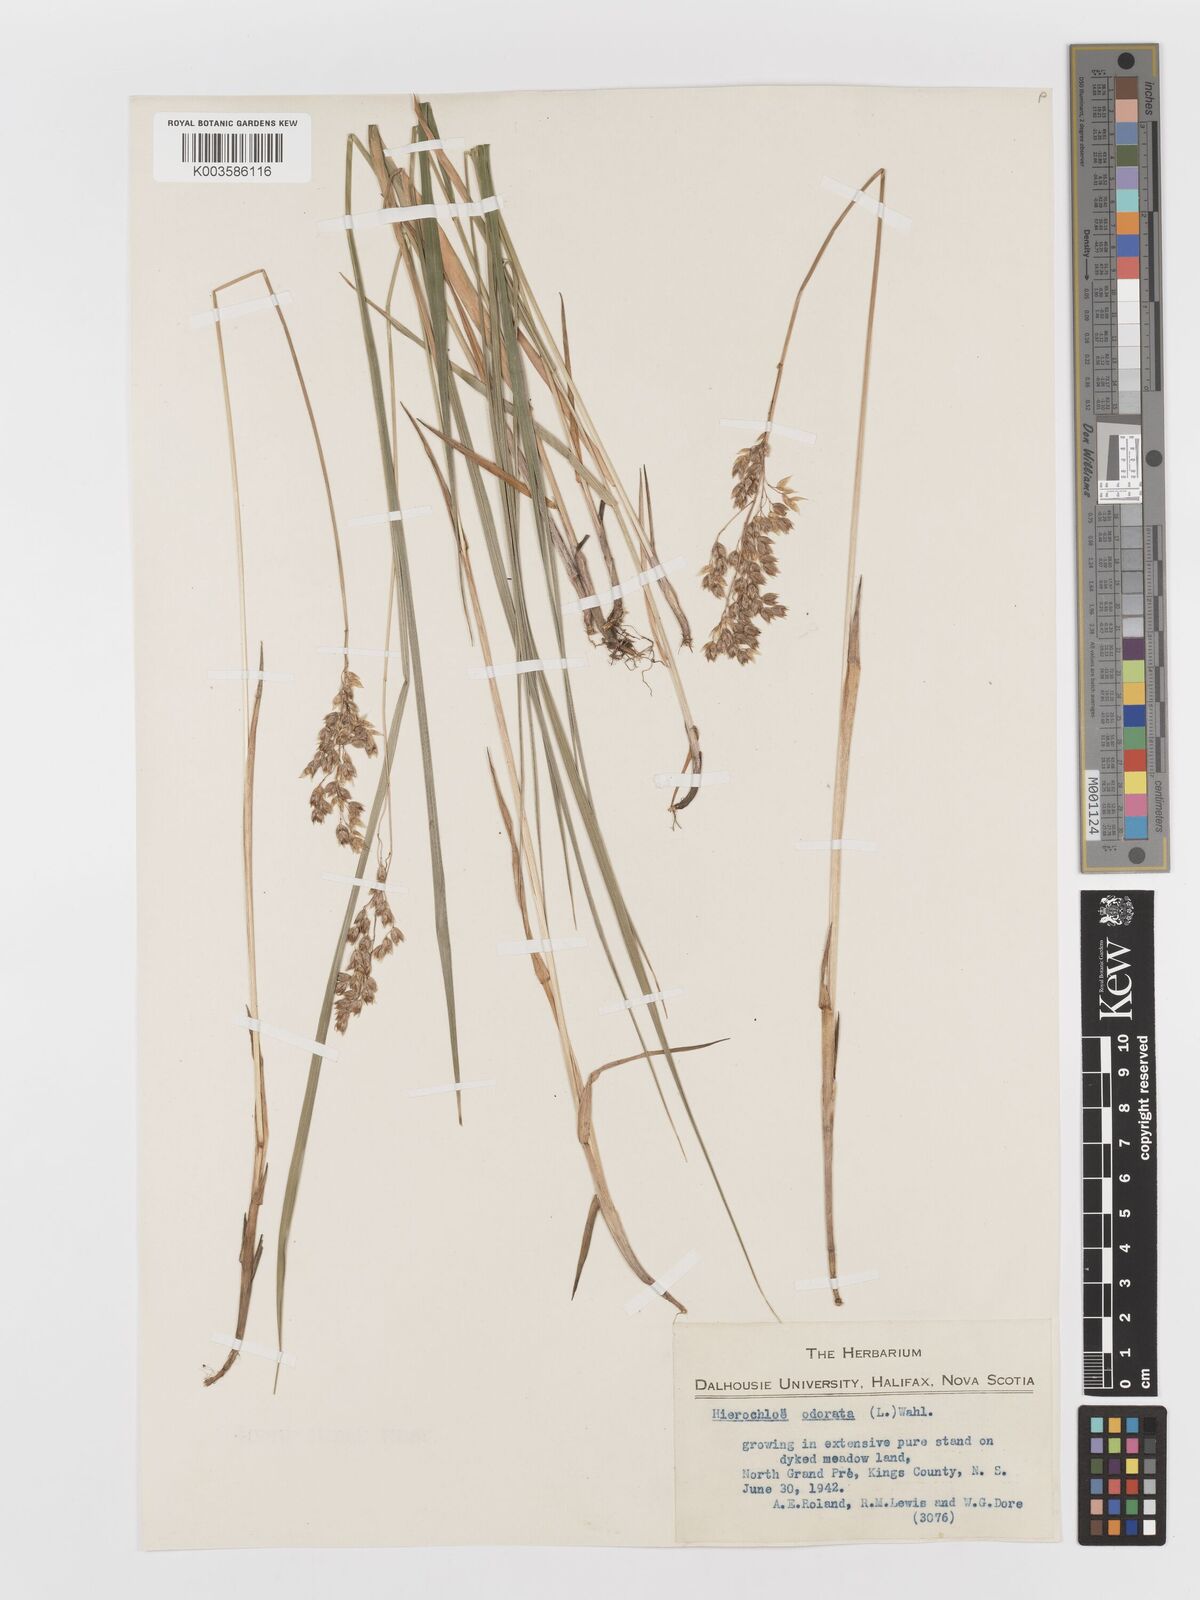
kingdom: Plantae
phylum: Tracheophyta
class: Liliopsida
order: Poales
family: Poaceae
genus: Anthoxanthum
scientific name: Anthoxanthum nitens
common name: Holy grass
